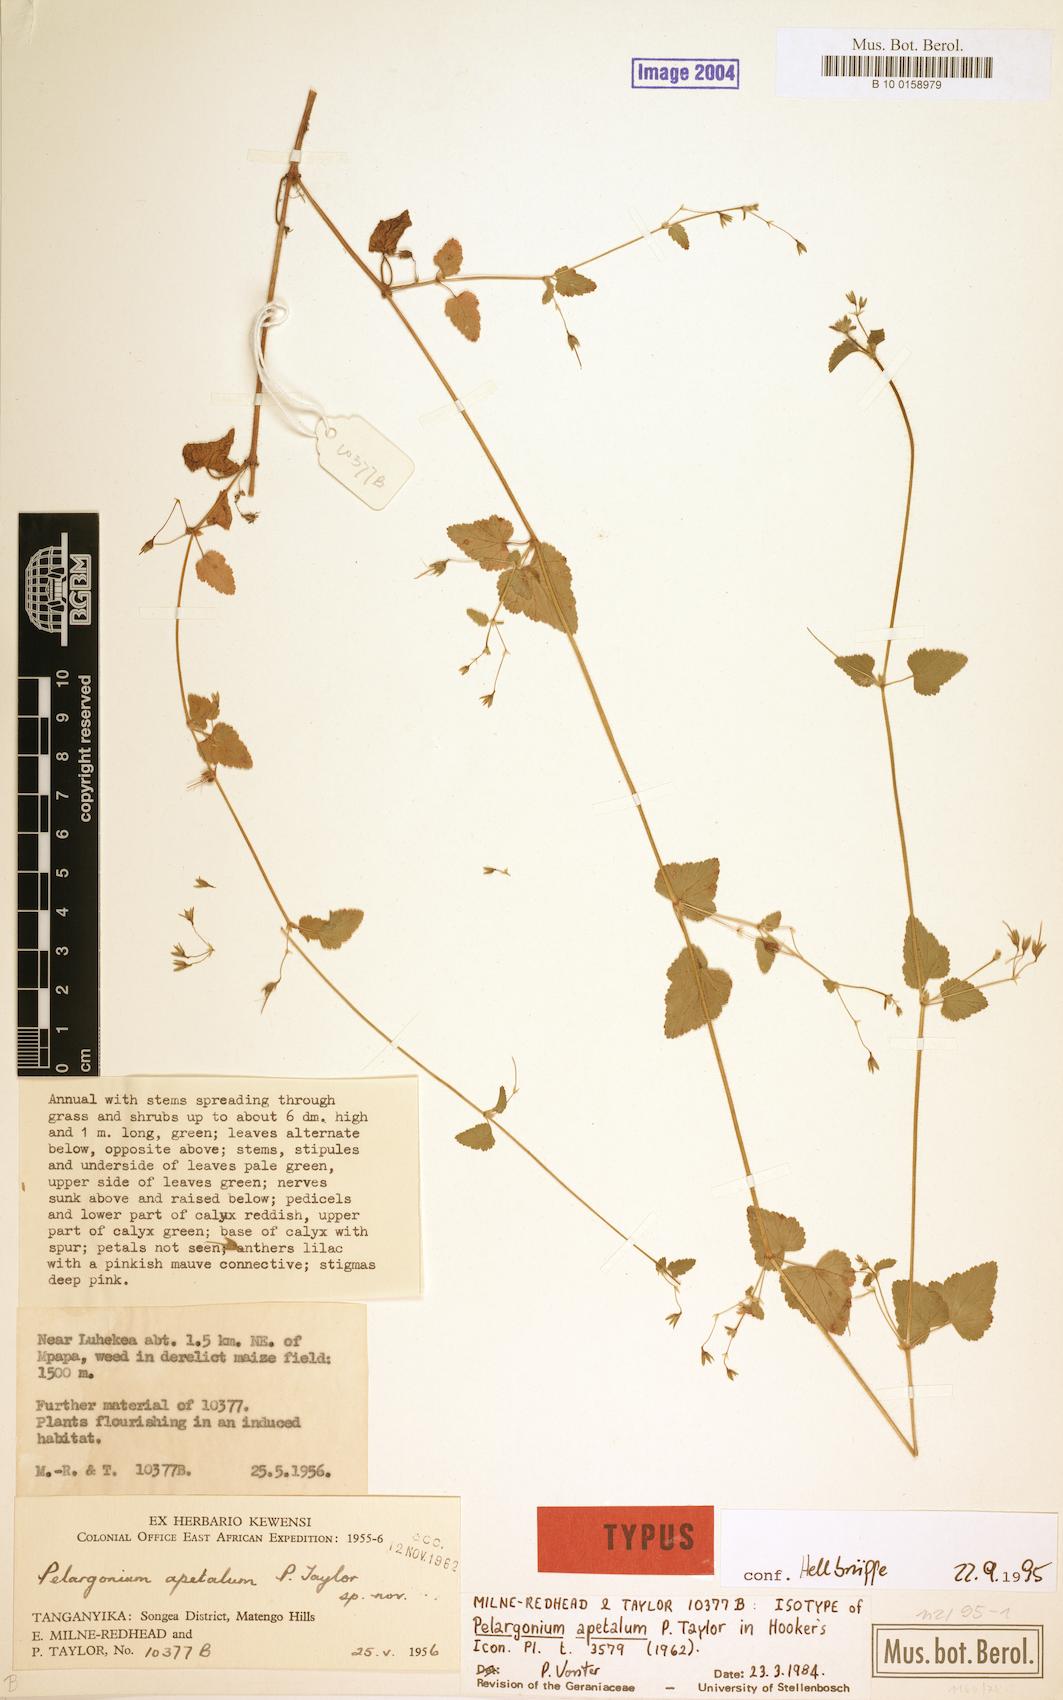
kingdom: Plantae
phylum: Tracheophyta
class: Magnoliopsida
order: Geraniales
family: Geraniaceae
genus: Pelargonium
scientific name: Pelargonium apetalum
